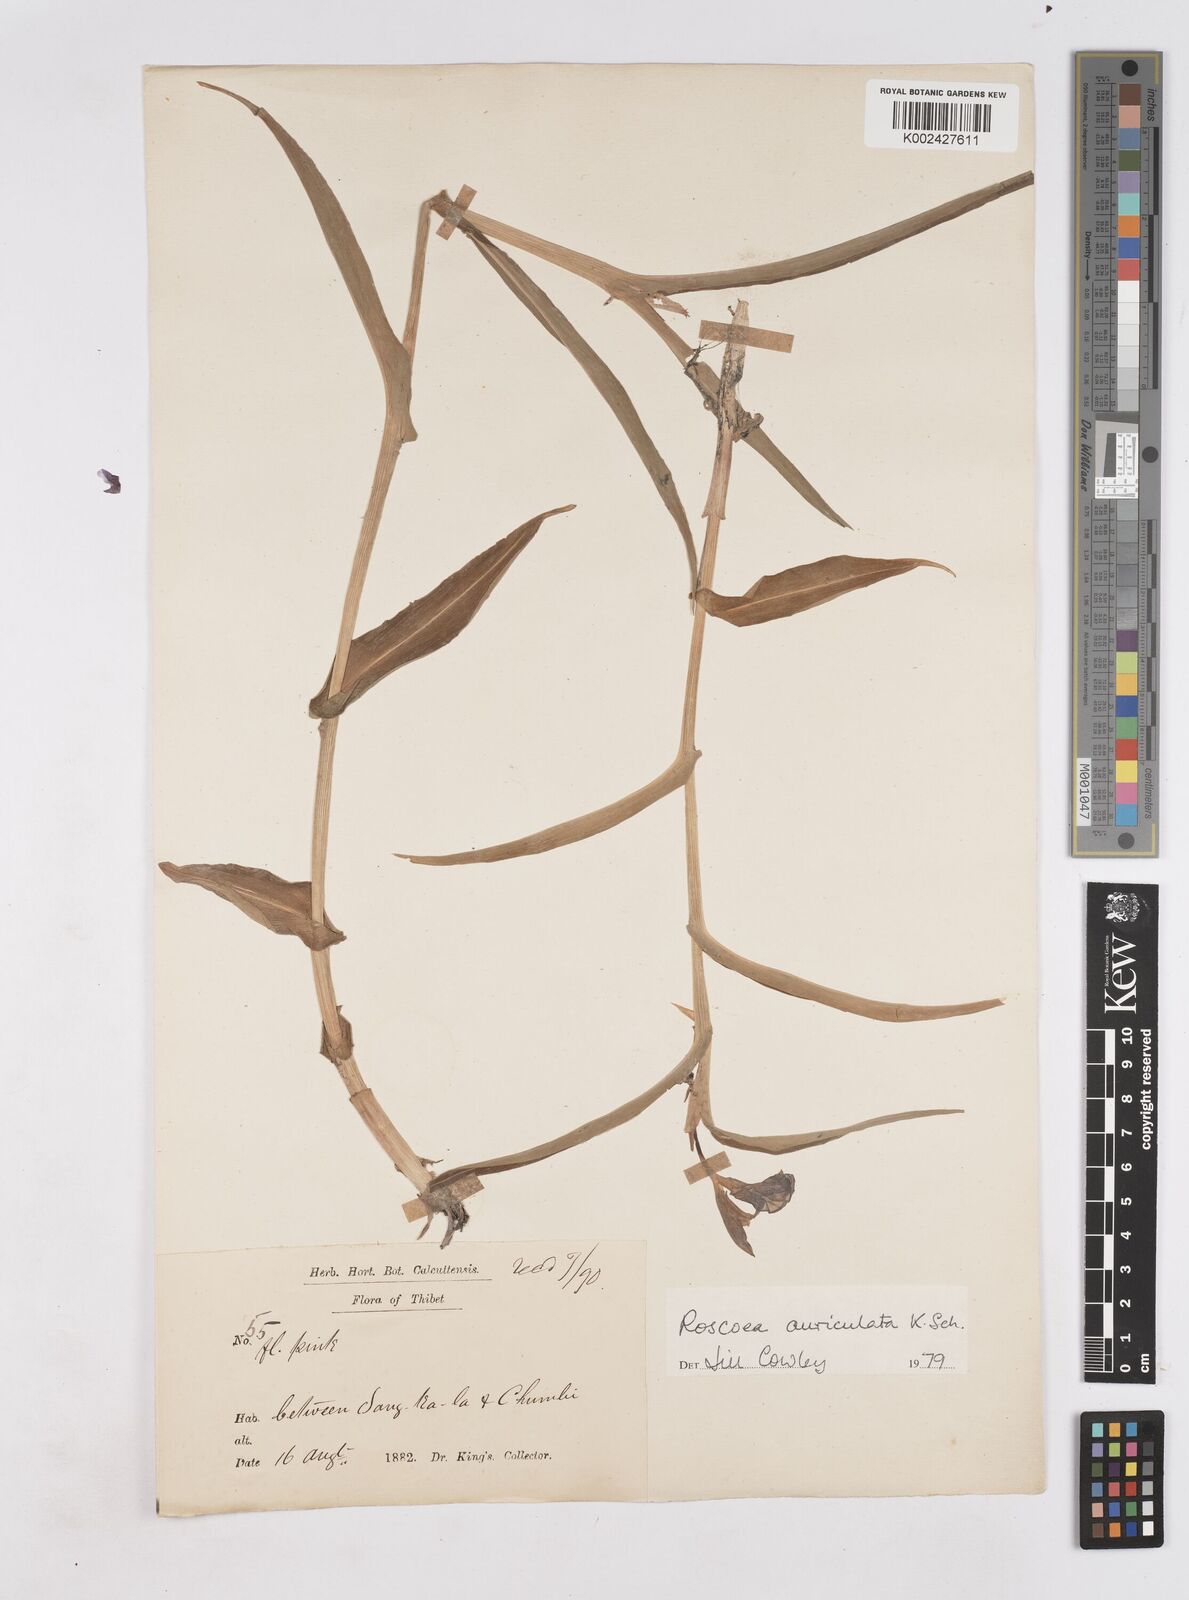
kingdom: Plantae
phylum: Tracheophyta
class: Liliopsida
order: Zingiberales
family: Zingiberaceae
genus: Roscoea
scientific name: Roscoea auriculata
